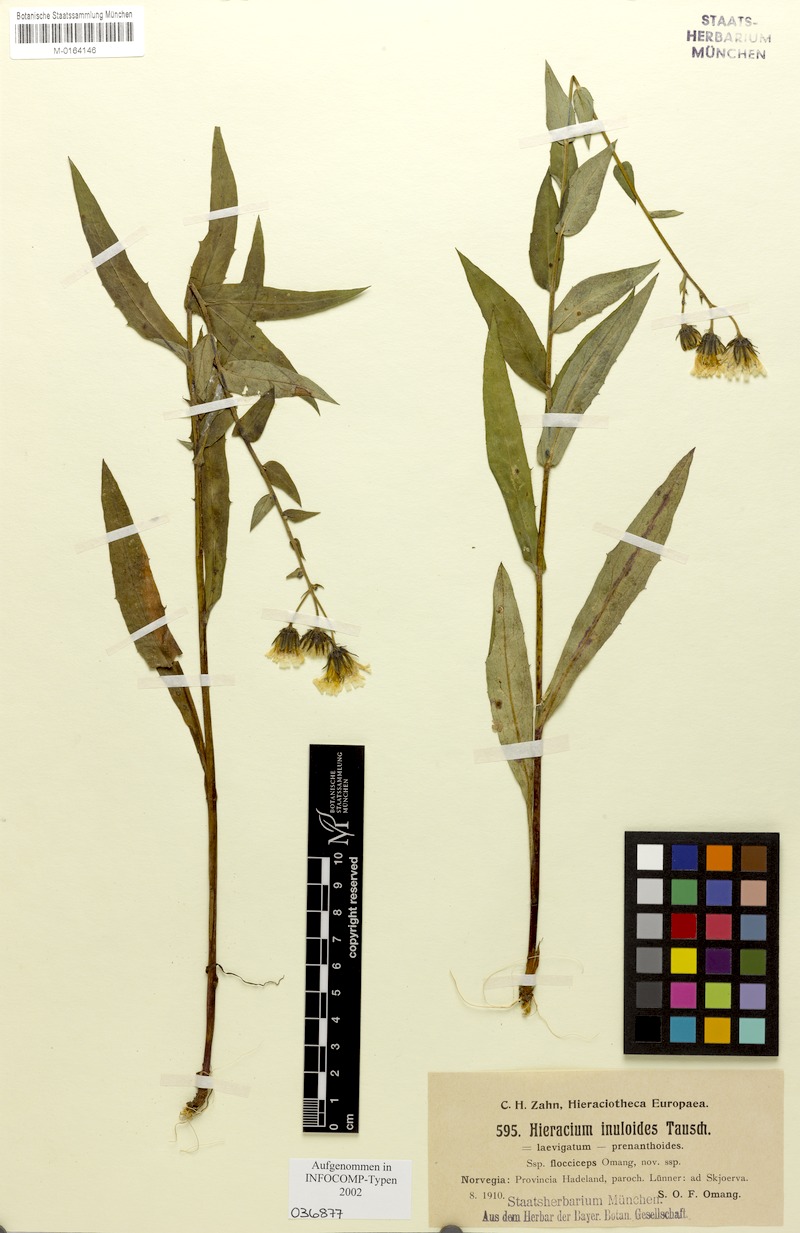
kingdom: Plantae
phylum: Tracheophyta
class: Magnoliopsida
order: Asterales
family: Asteraceae
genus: Hieracium
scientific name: Hieracium inuloides
